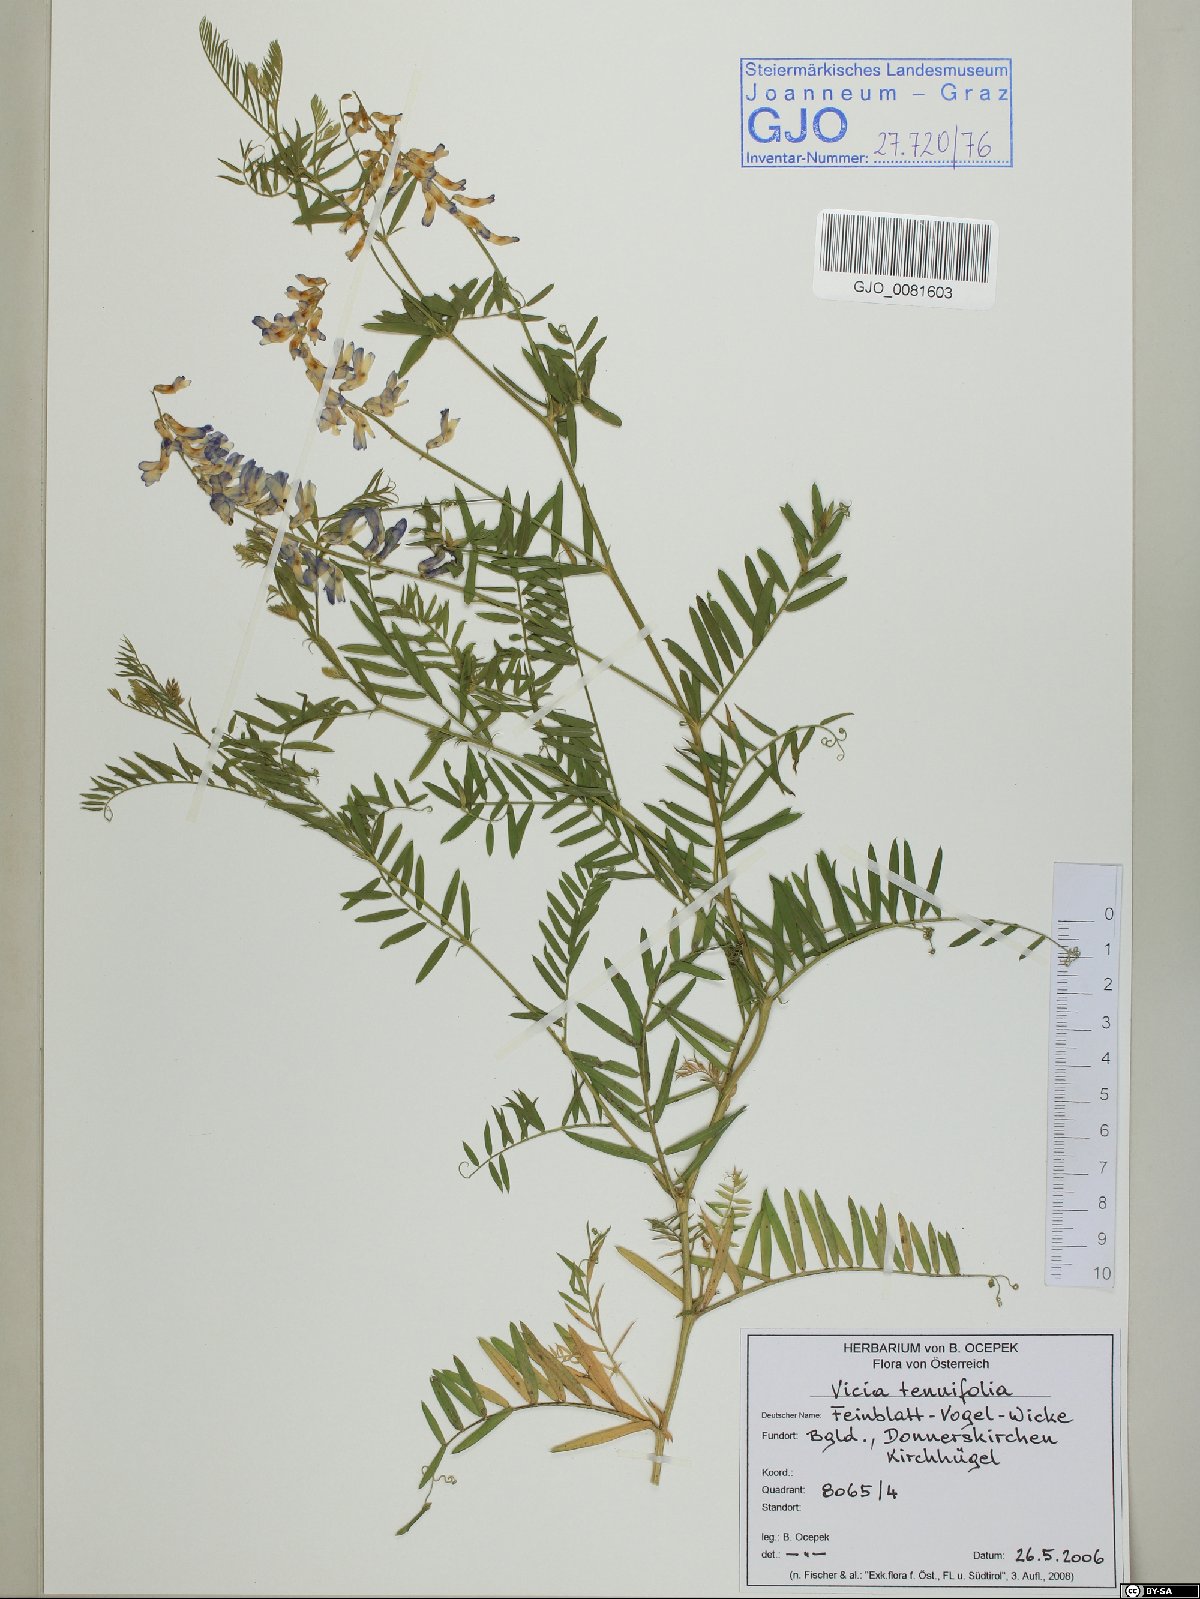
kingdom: Plantae
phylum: Tracheophyta
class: Magnoliopsida
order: Fabales
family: Fabaceae
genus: Vicia
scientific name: Vicia tenuifolia
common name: Fine-leaved vetch
